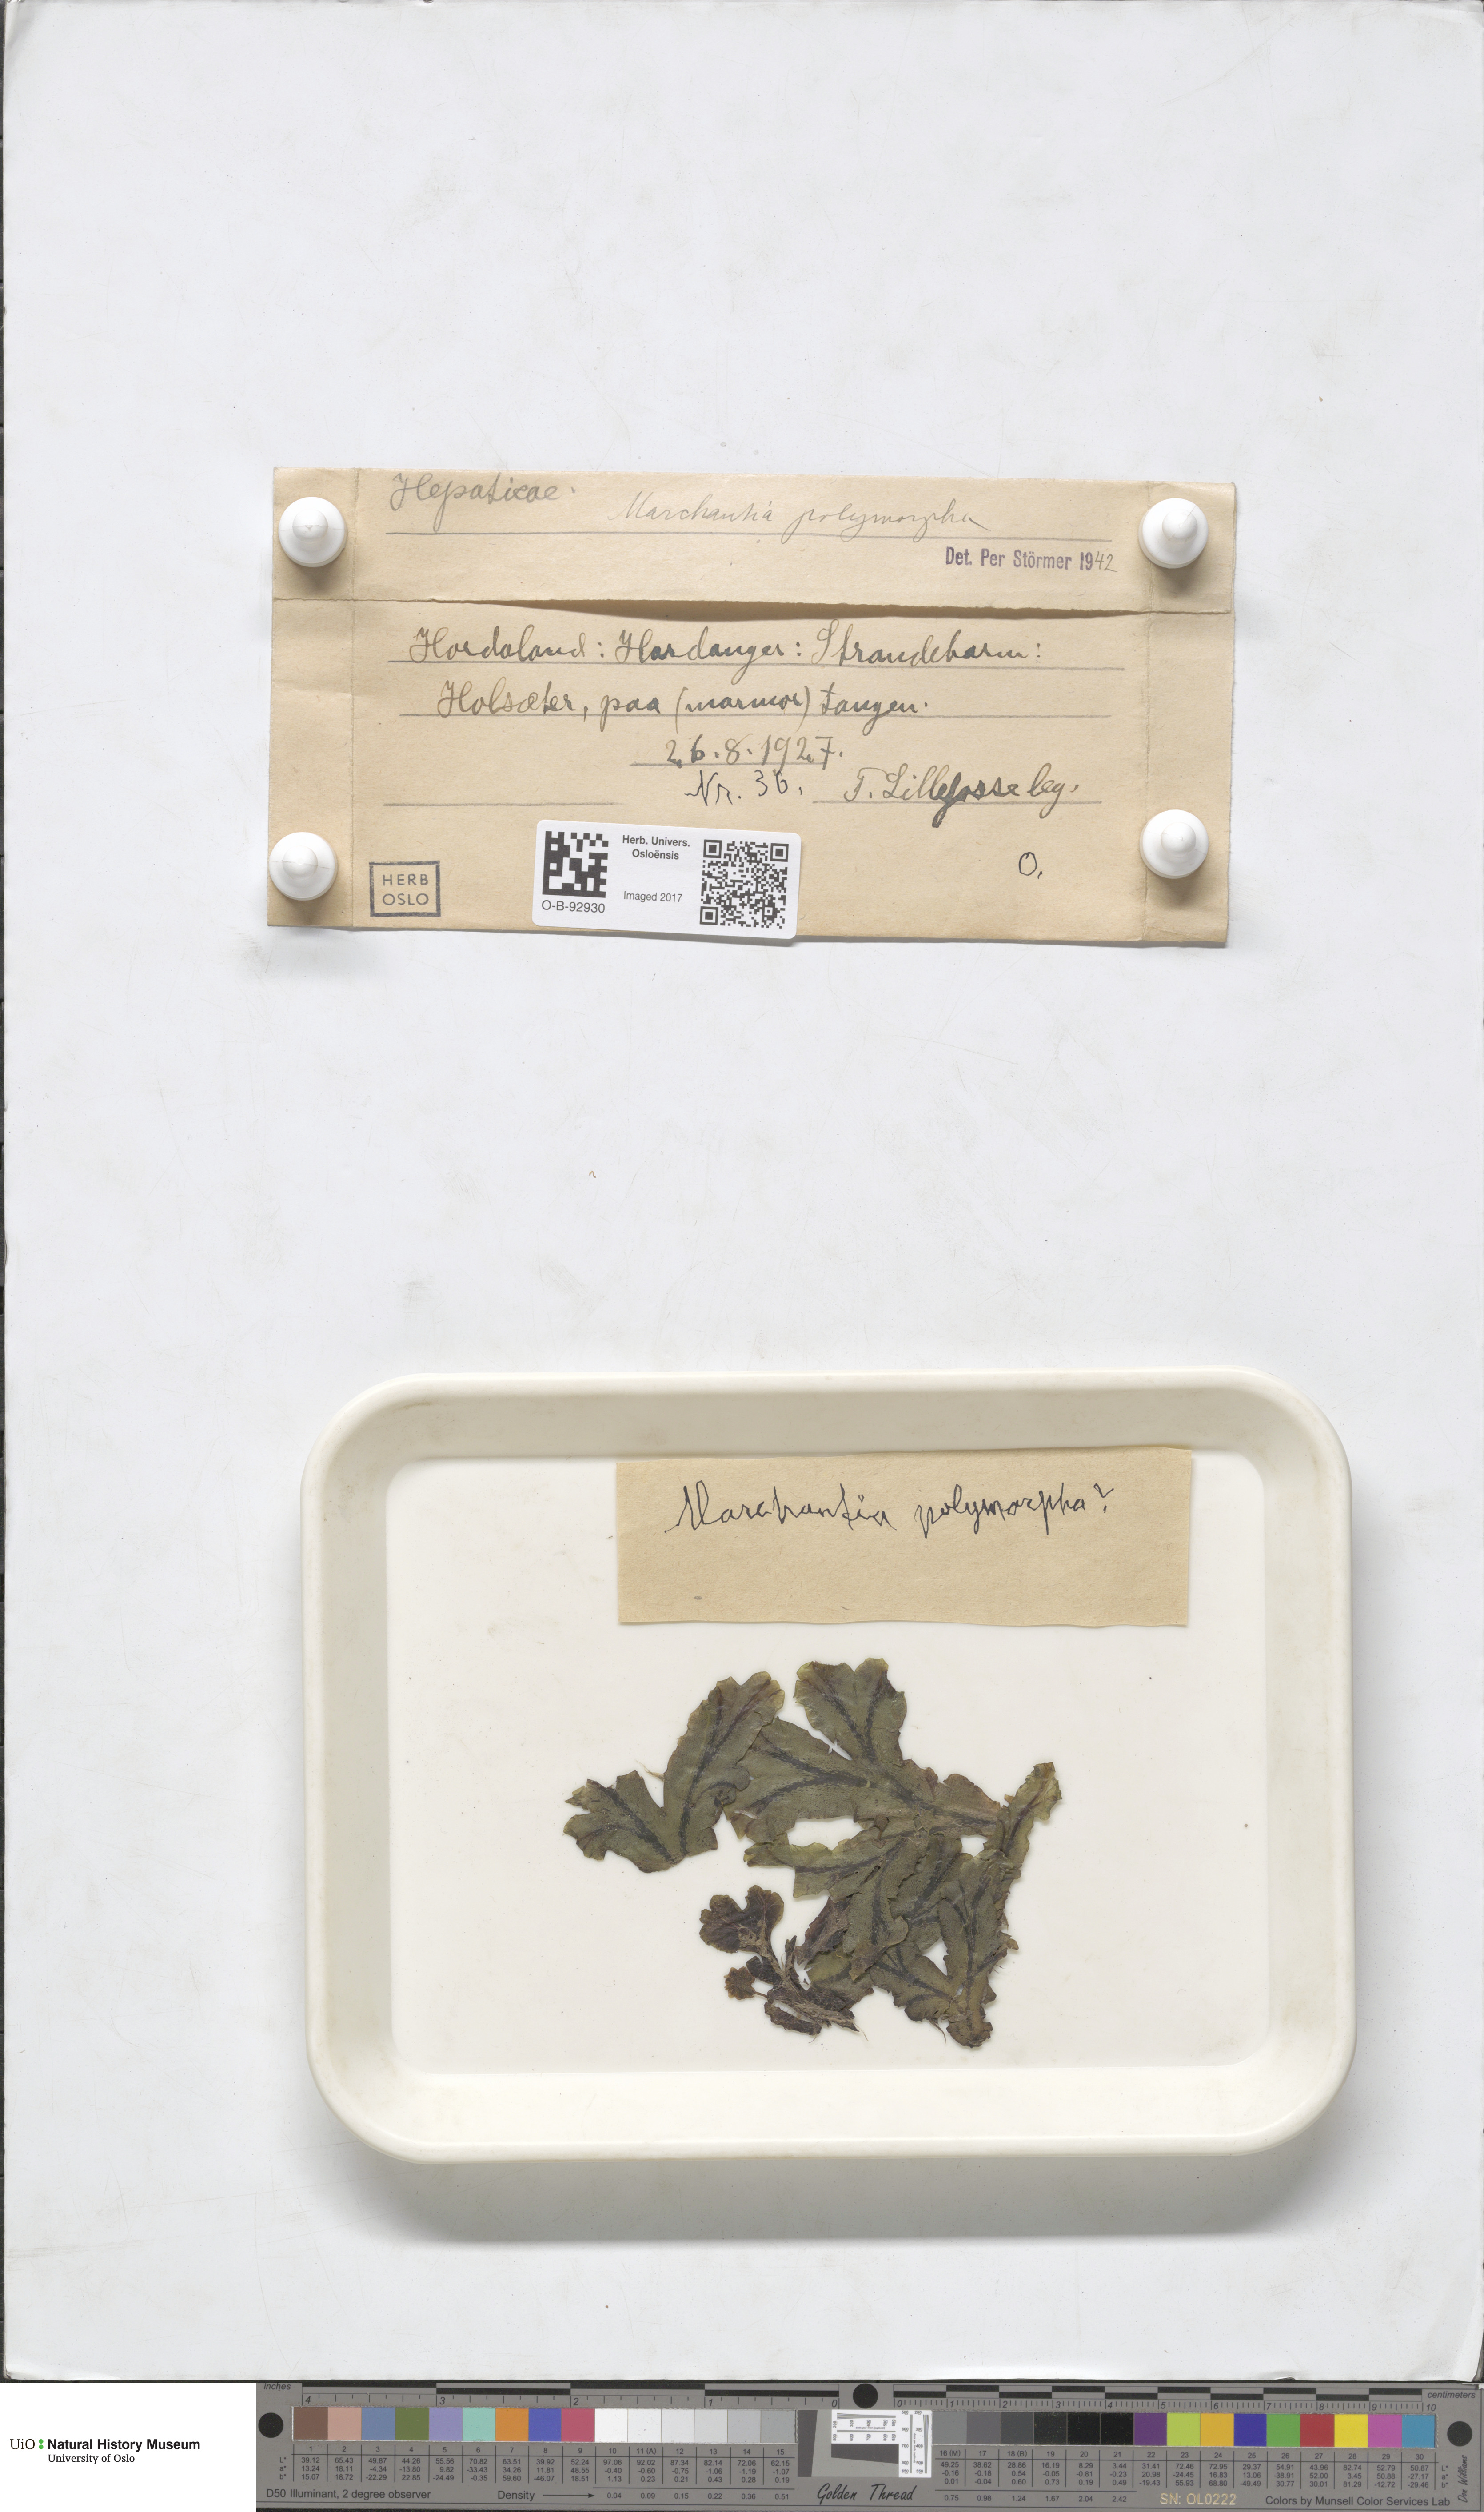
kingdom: Plantae
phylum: Marchantiophyta
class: Marchantiopsida
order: Marchantiales
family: Marchantiaceae
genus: Marchantia
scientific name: Marchantia polymorpha
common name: Common liverwort
